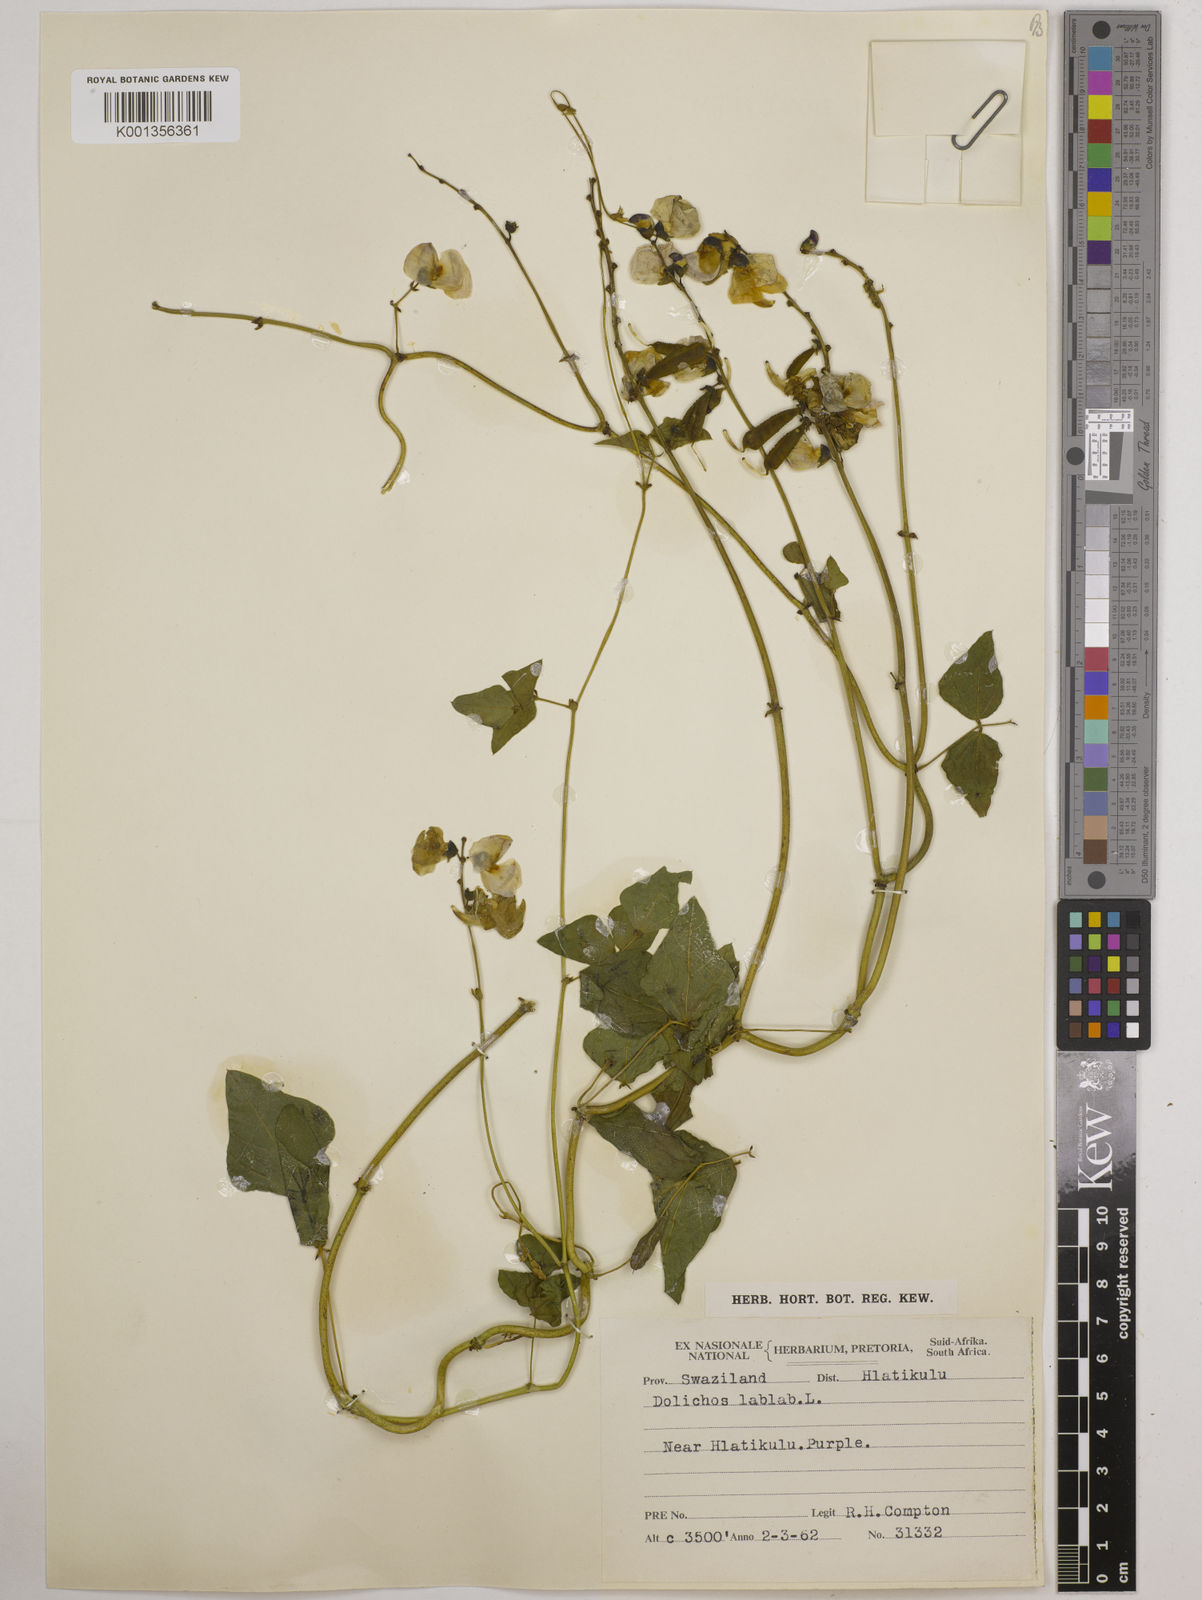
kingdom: Plantae
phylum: Tracheophyta
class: Magnoliopsida
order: Fabales
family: Fabaceae
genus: Lablab
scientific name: Lablab purpureus
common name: Lablab-bean
